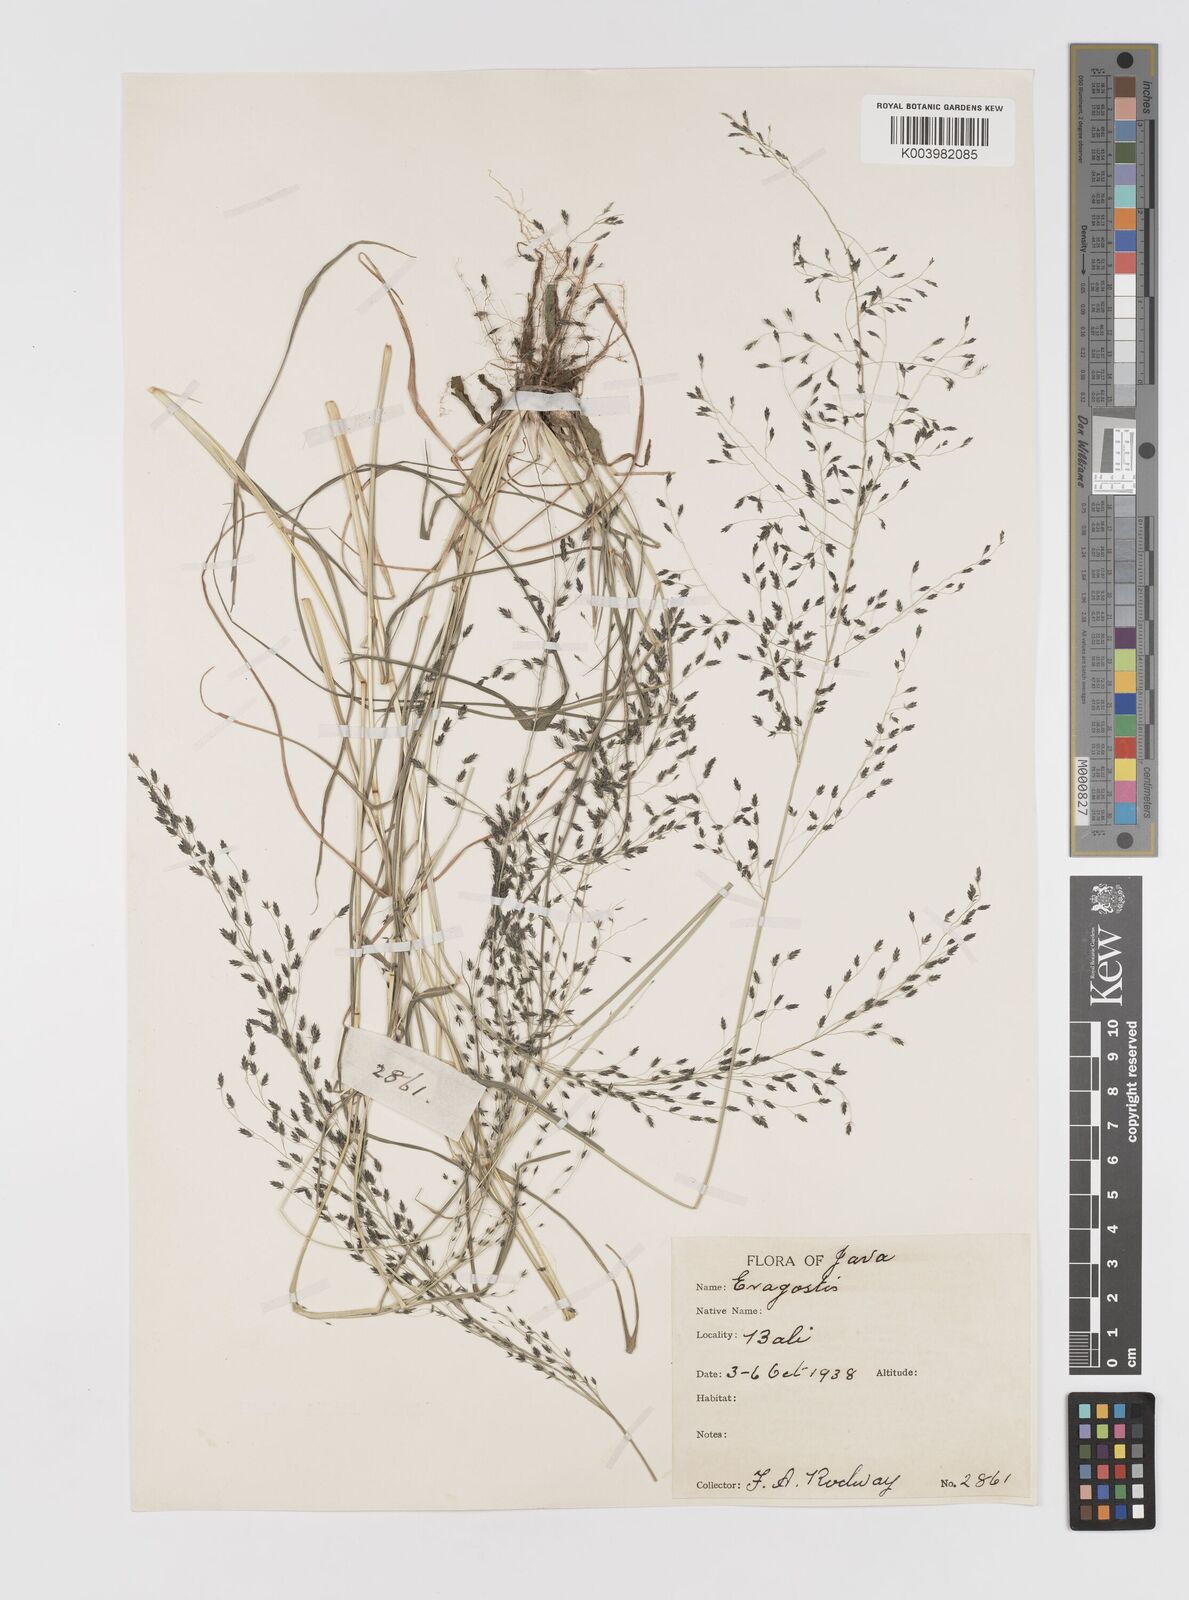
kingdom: Plantae
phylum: Tracheophyta
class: Liliopsida
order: Poales
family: Poaceae
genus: Eragrostis
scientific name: Eragrostis nigra
